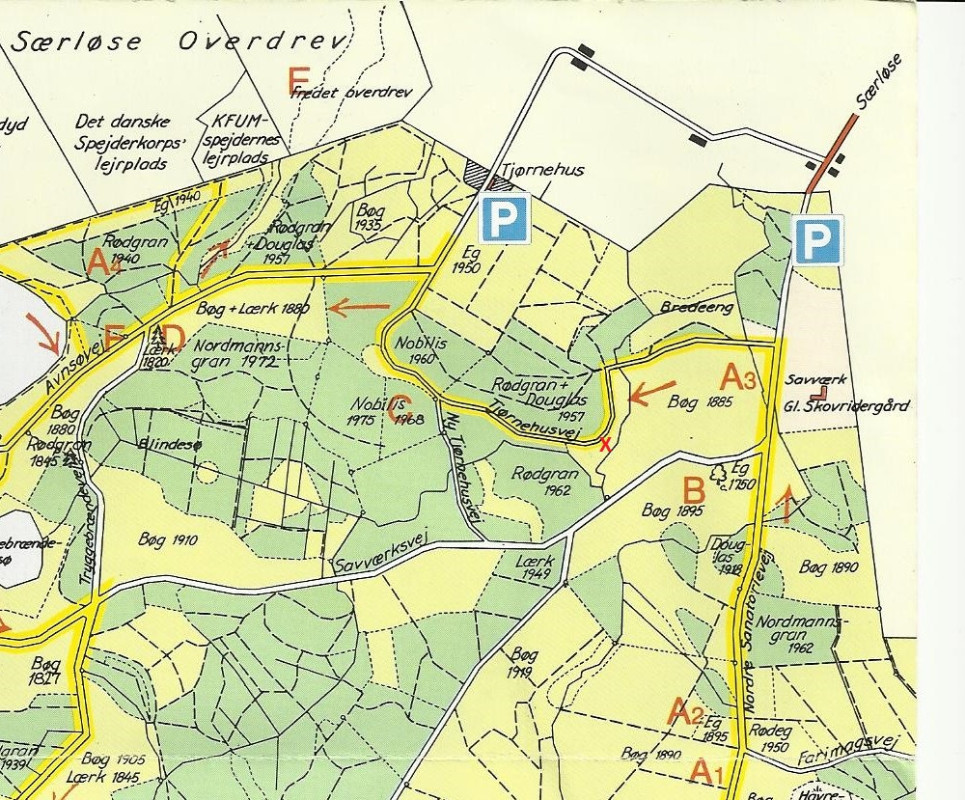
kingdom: Fungi
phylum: Basidiomycota
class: Agaricomycetes
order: Cantharellales
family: Hydnaceae
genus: Hydnum
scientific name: Hydnum
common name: pigsvamp
